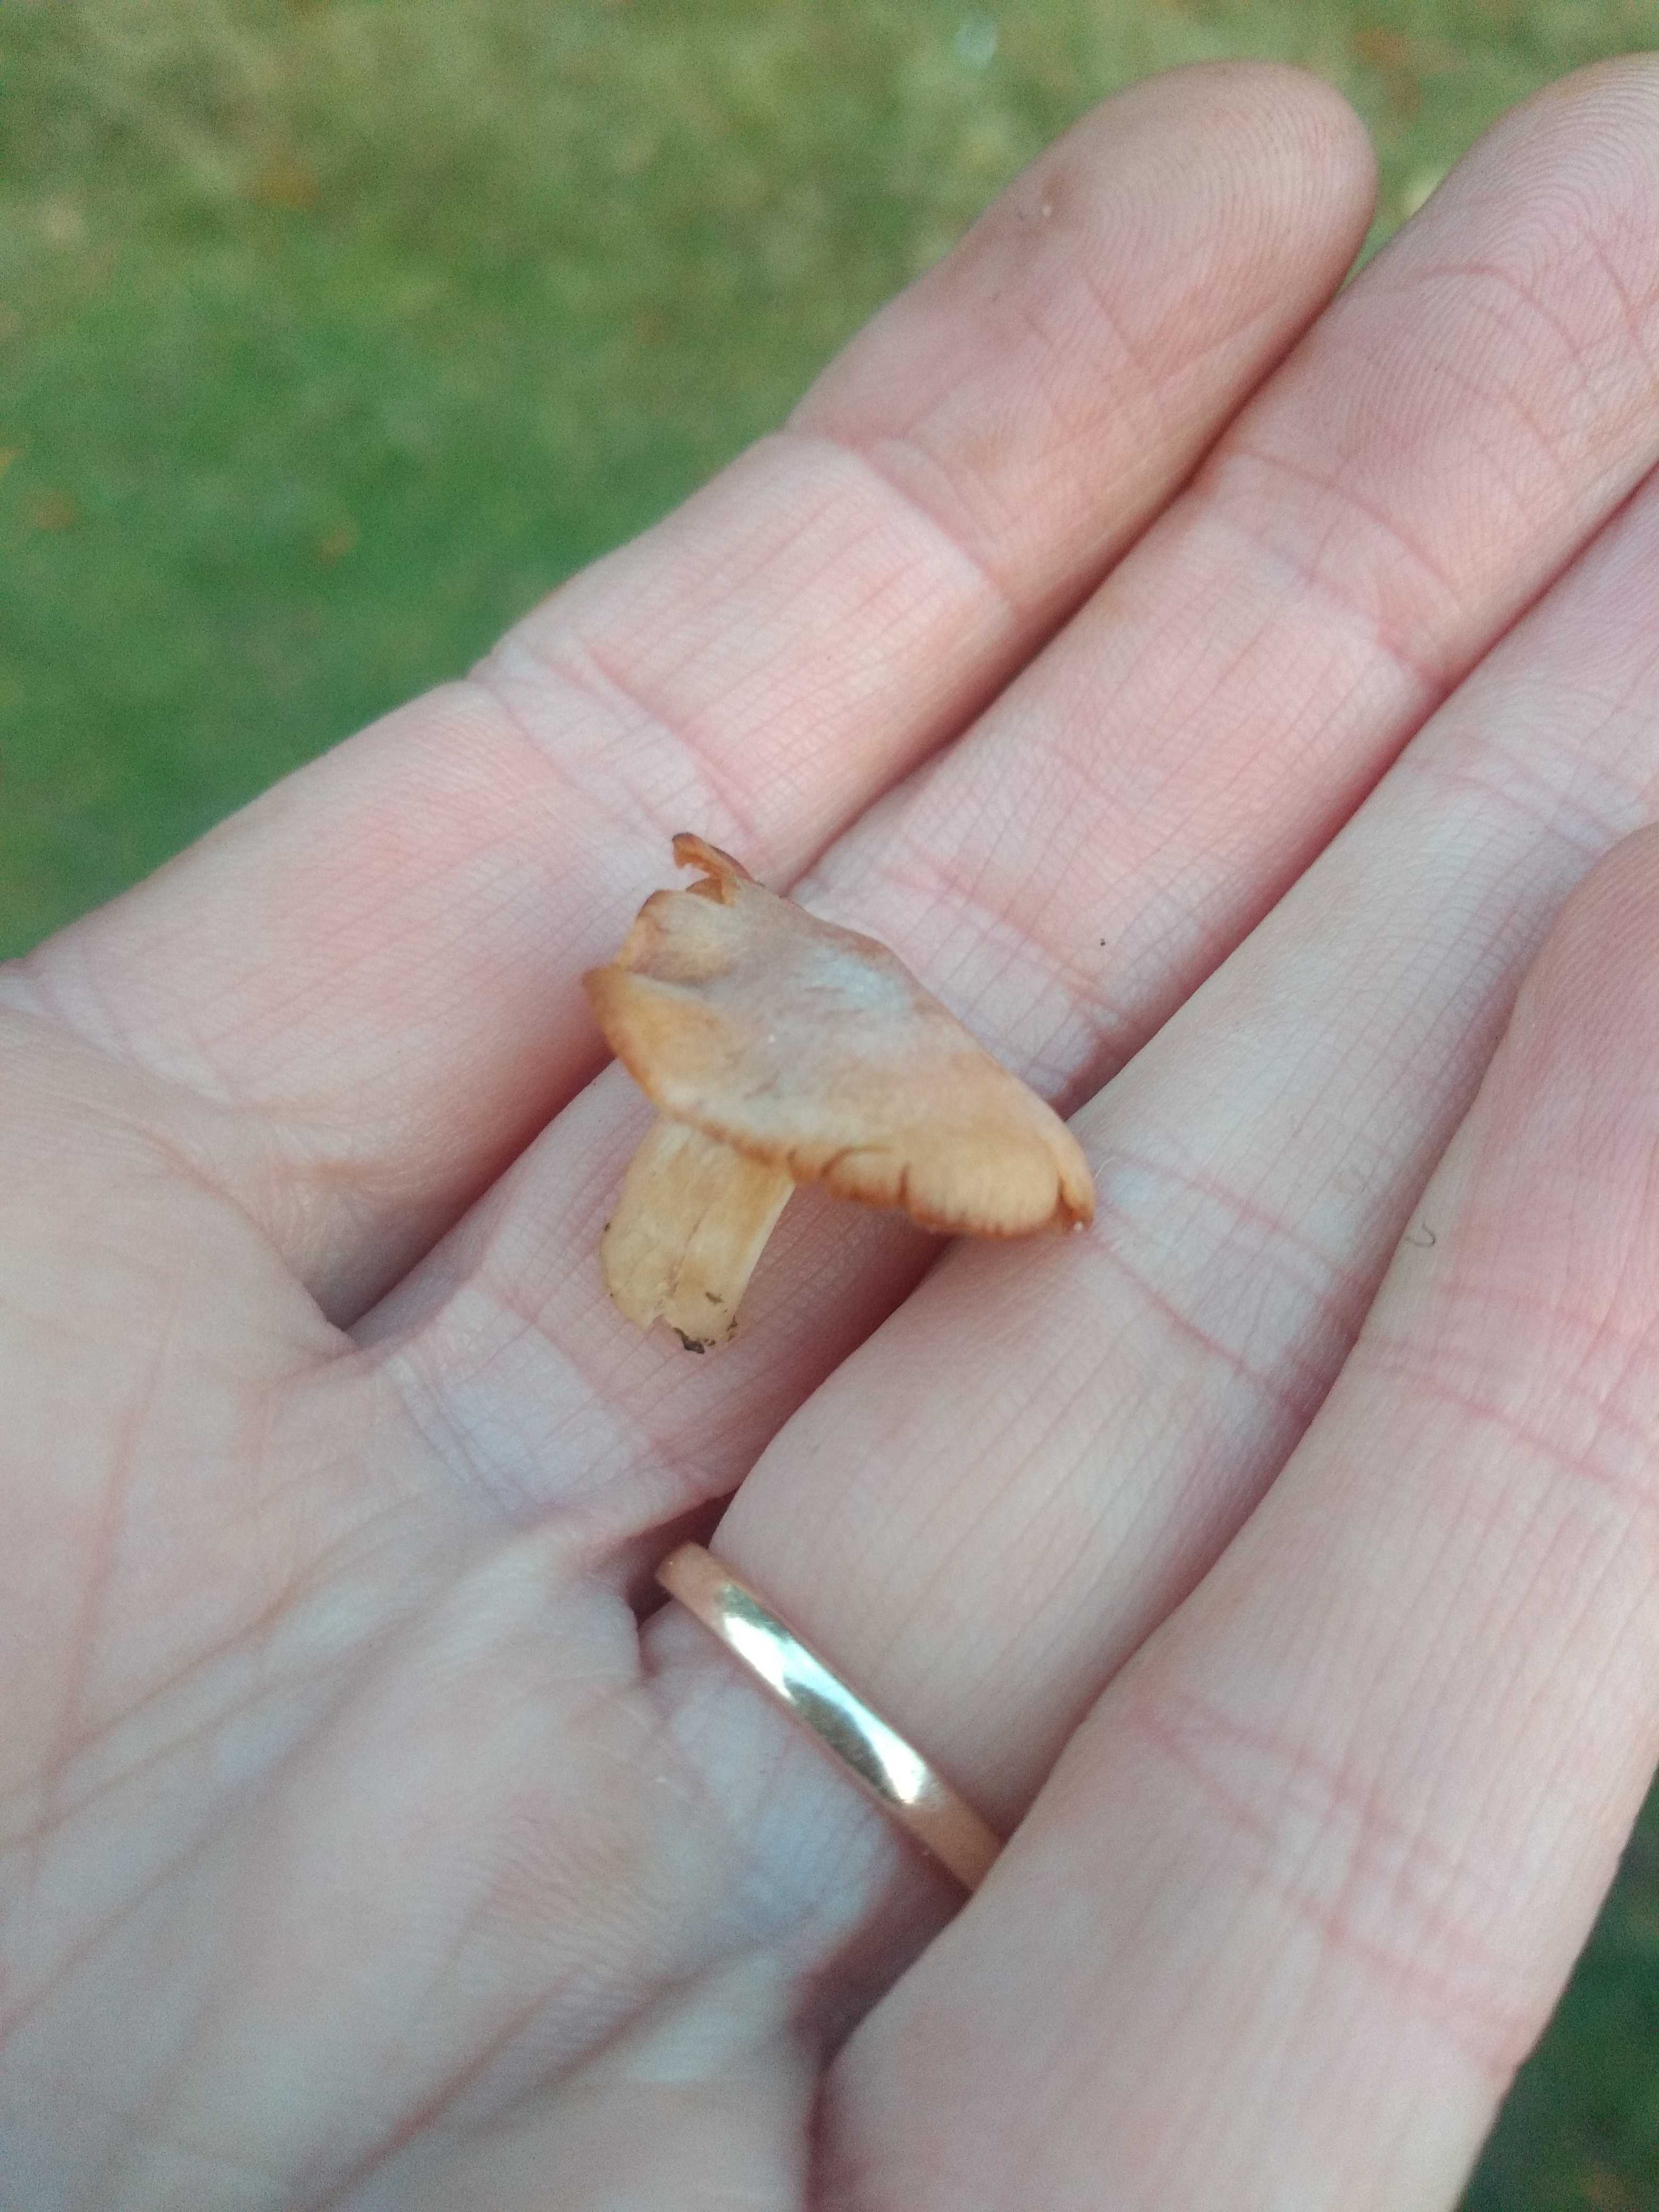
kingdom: Fungi
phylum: Basidiomycota
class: Agaricomycetes
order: Agaricales
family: Cortinariaceae
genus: Cortinarius
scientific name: Cortinarius
